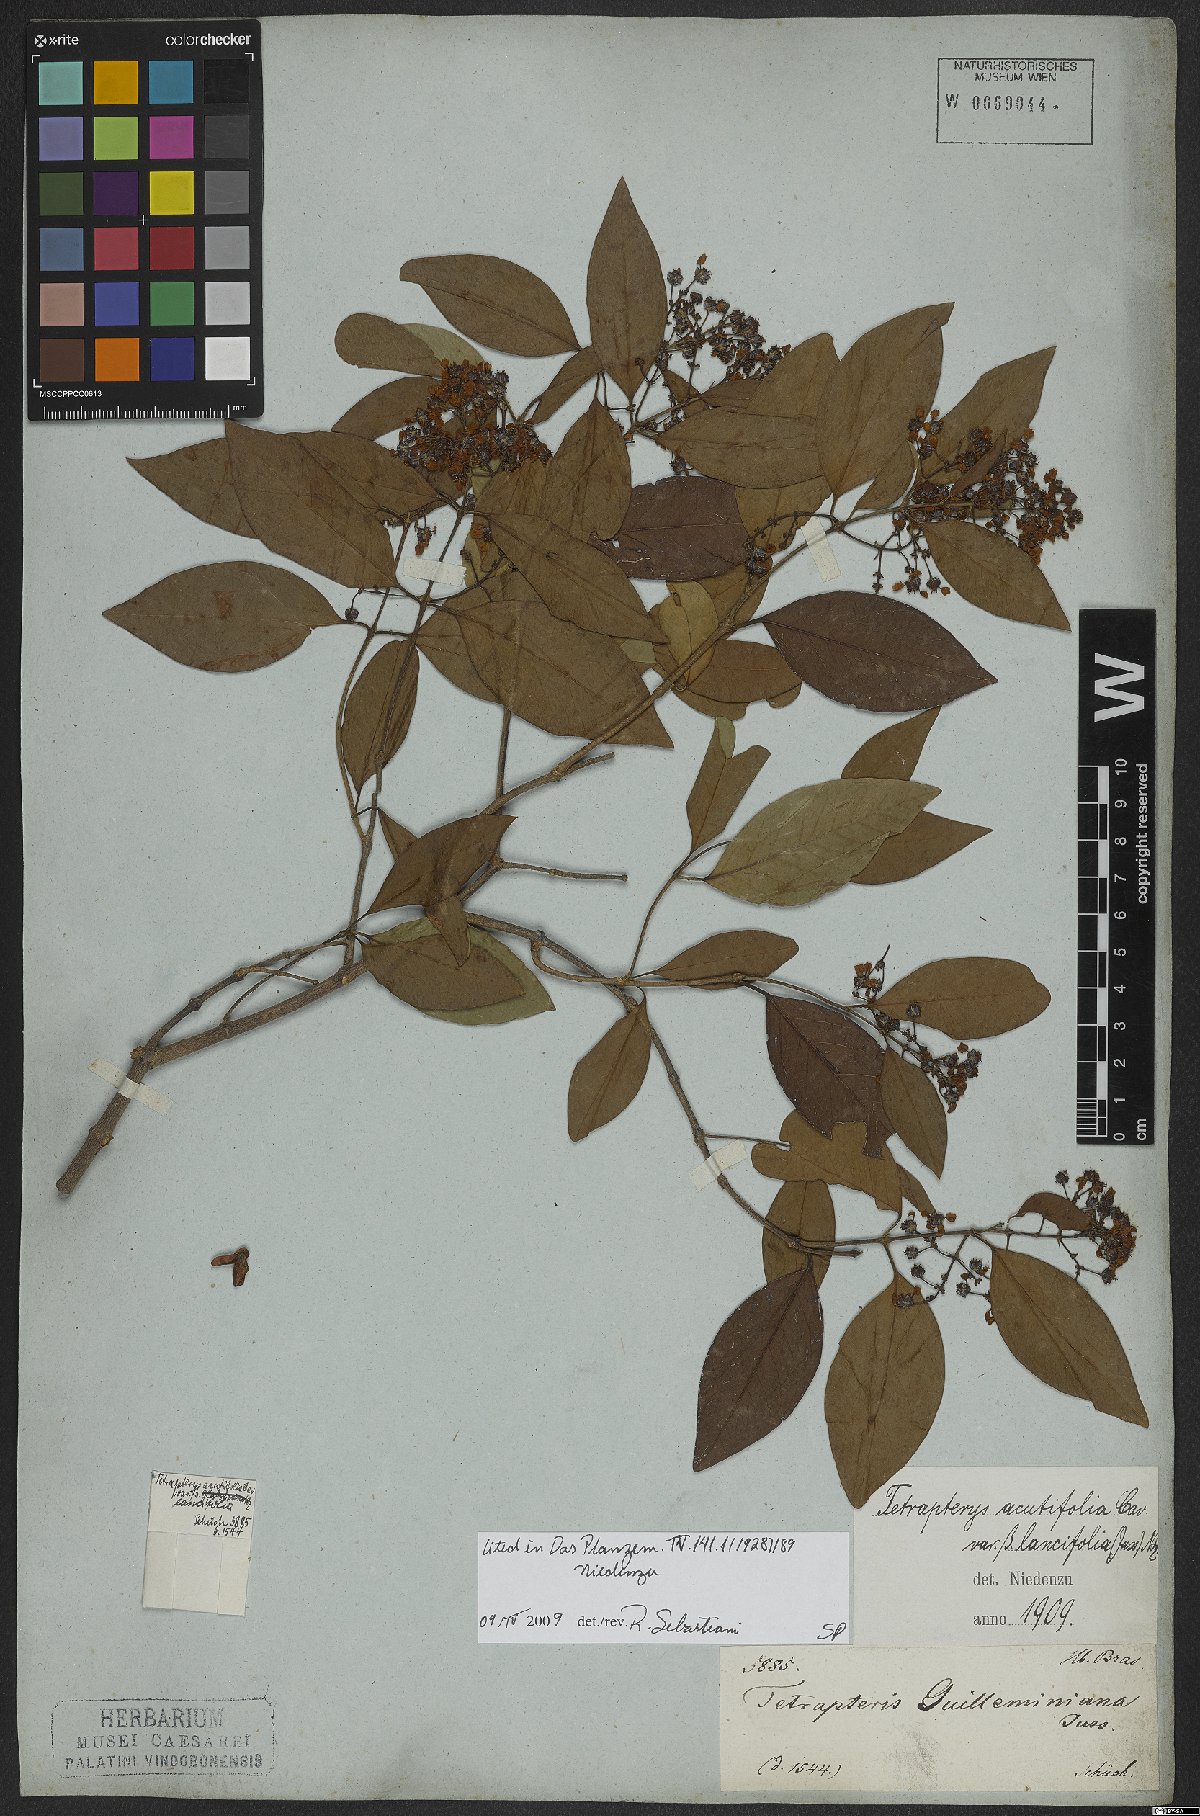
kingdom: Plantae
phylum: Tracheophyta
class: Magnoliopsida
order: Malpighiales
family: Malpighiaceae
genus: Niedenzuella
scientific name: Niedenzuella acutifolia
